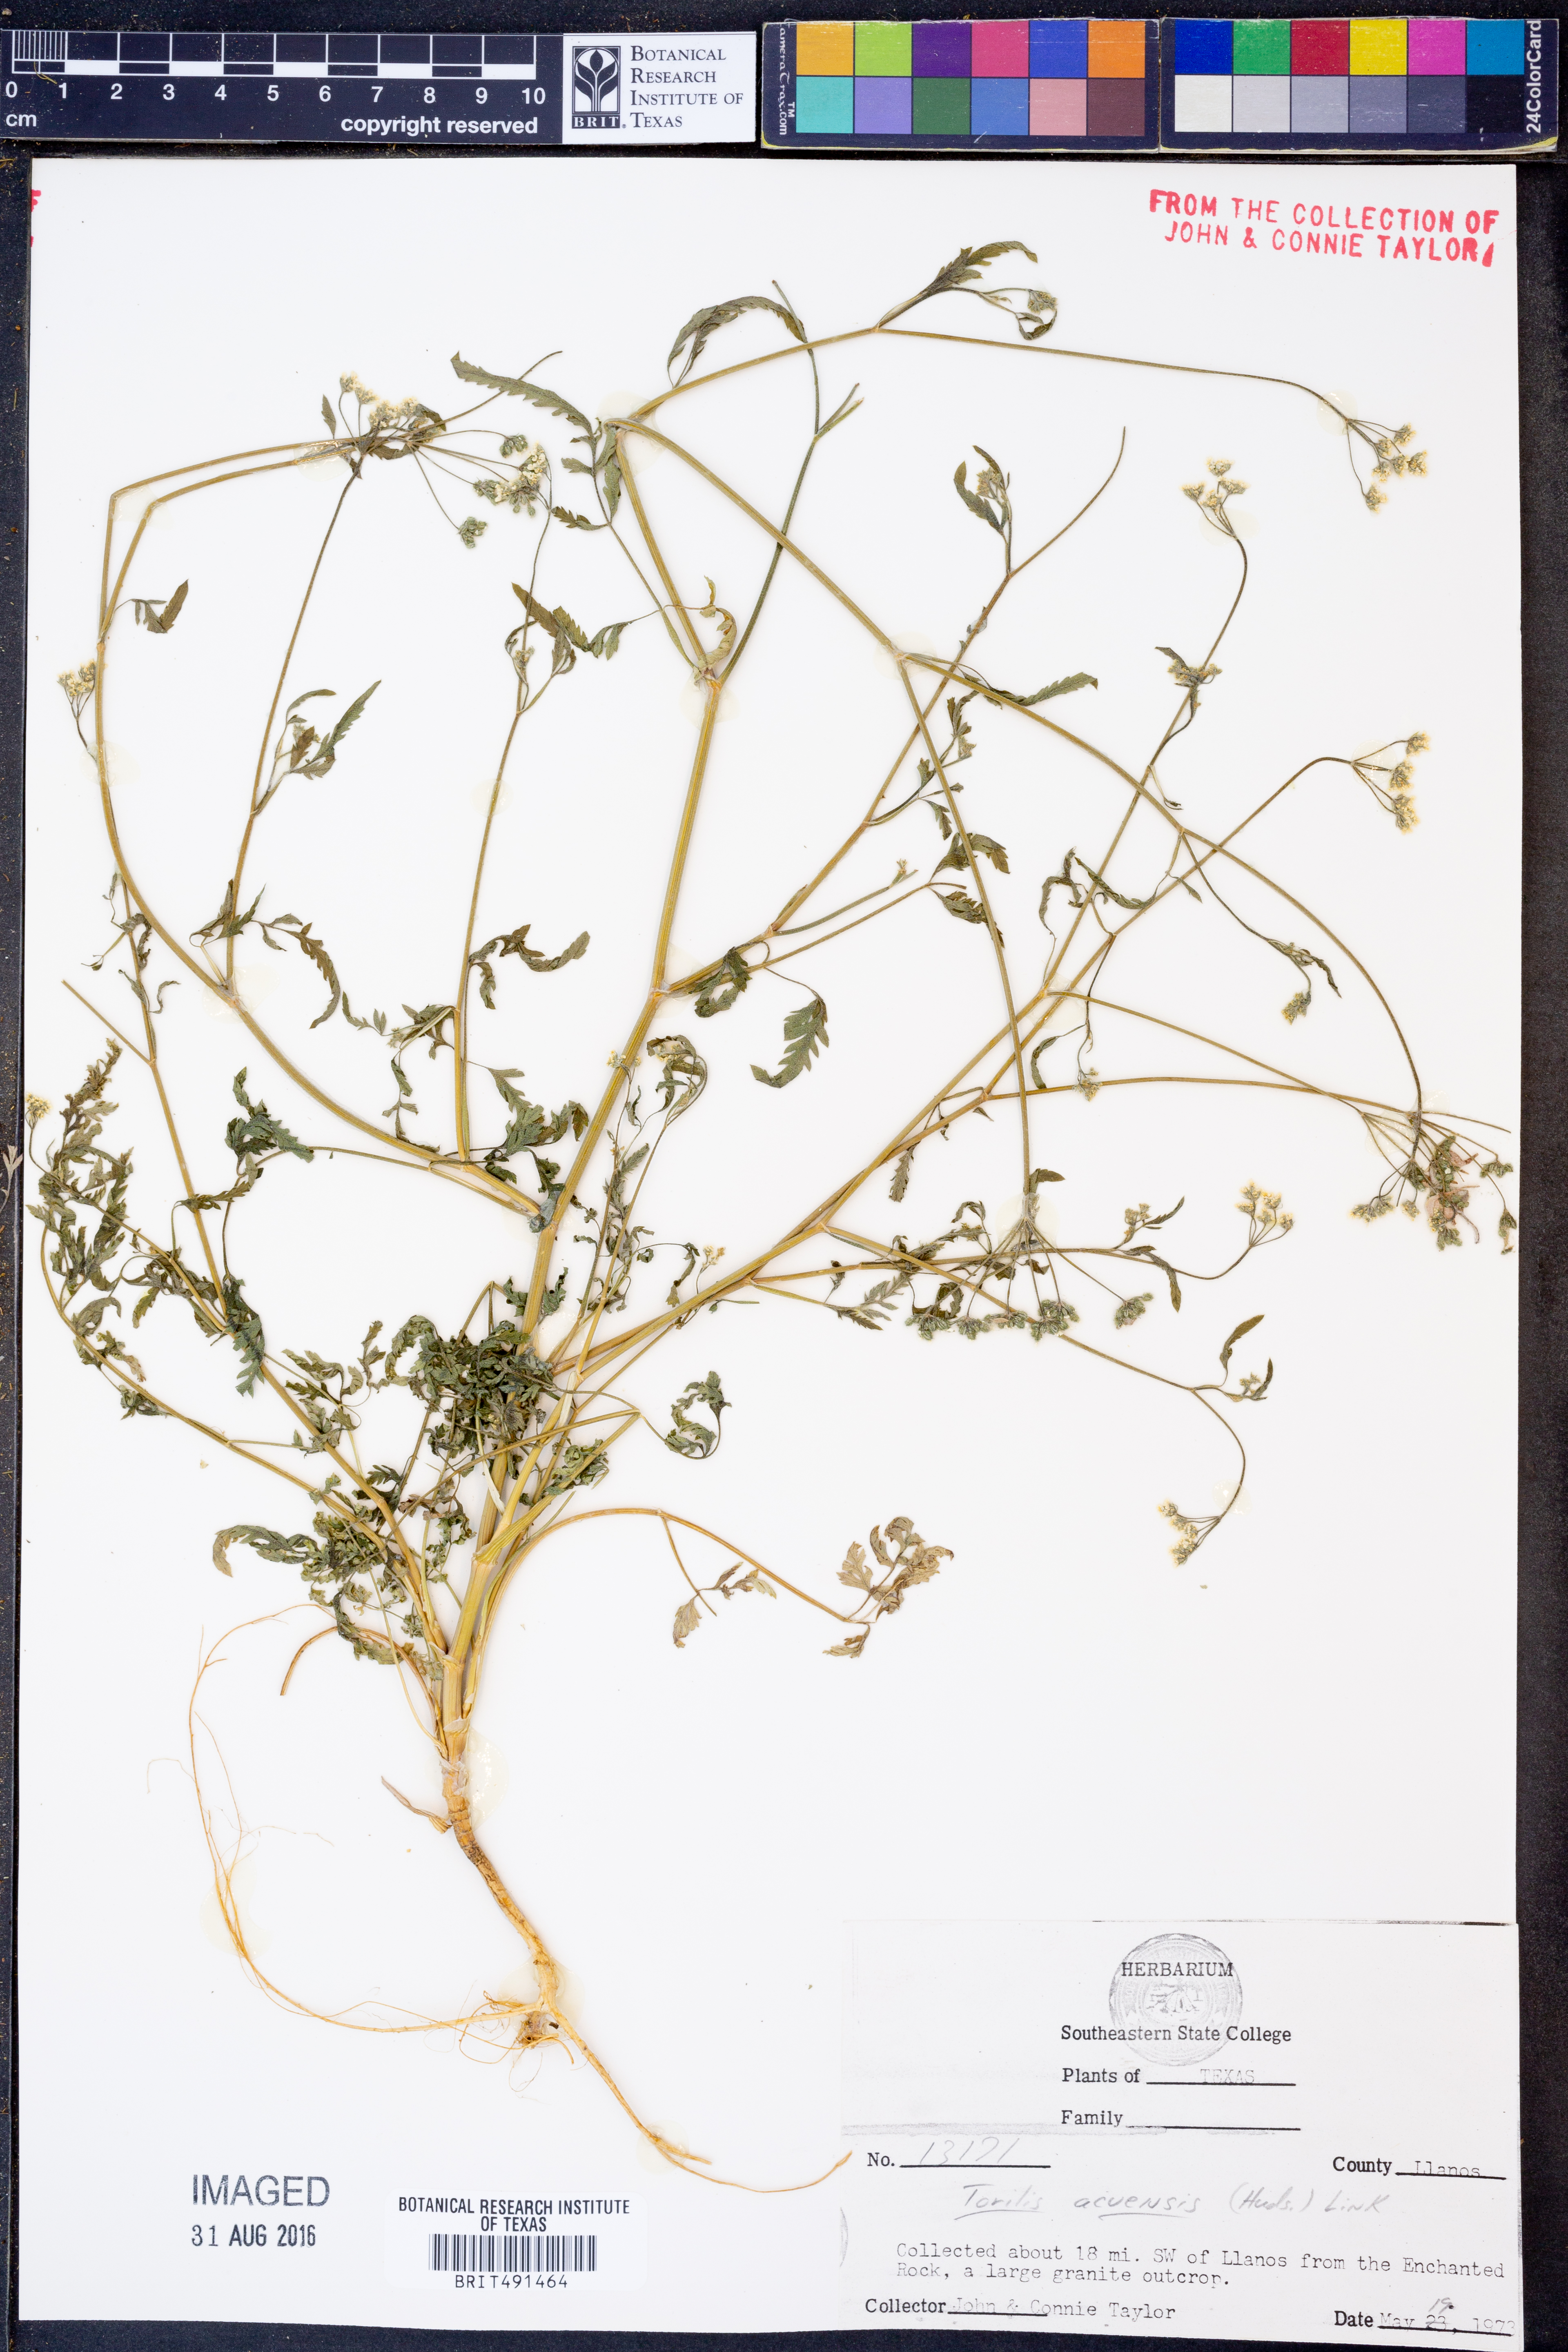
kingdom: Plantae
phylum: Tracheophyta
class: Magnoliopsida
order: Apiales
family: Apiaceae
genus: Torilis
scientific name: Torilis arvensis
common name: Spreading hedge-parsley
